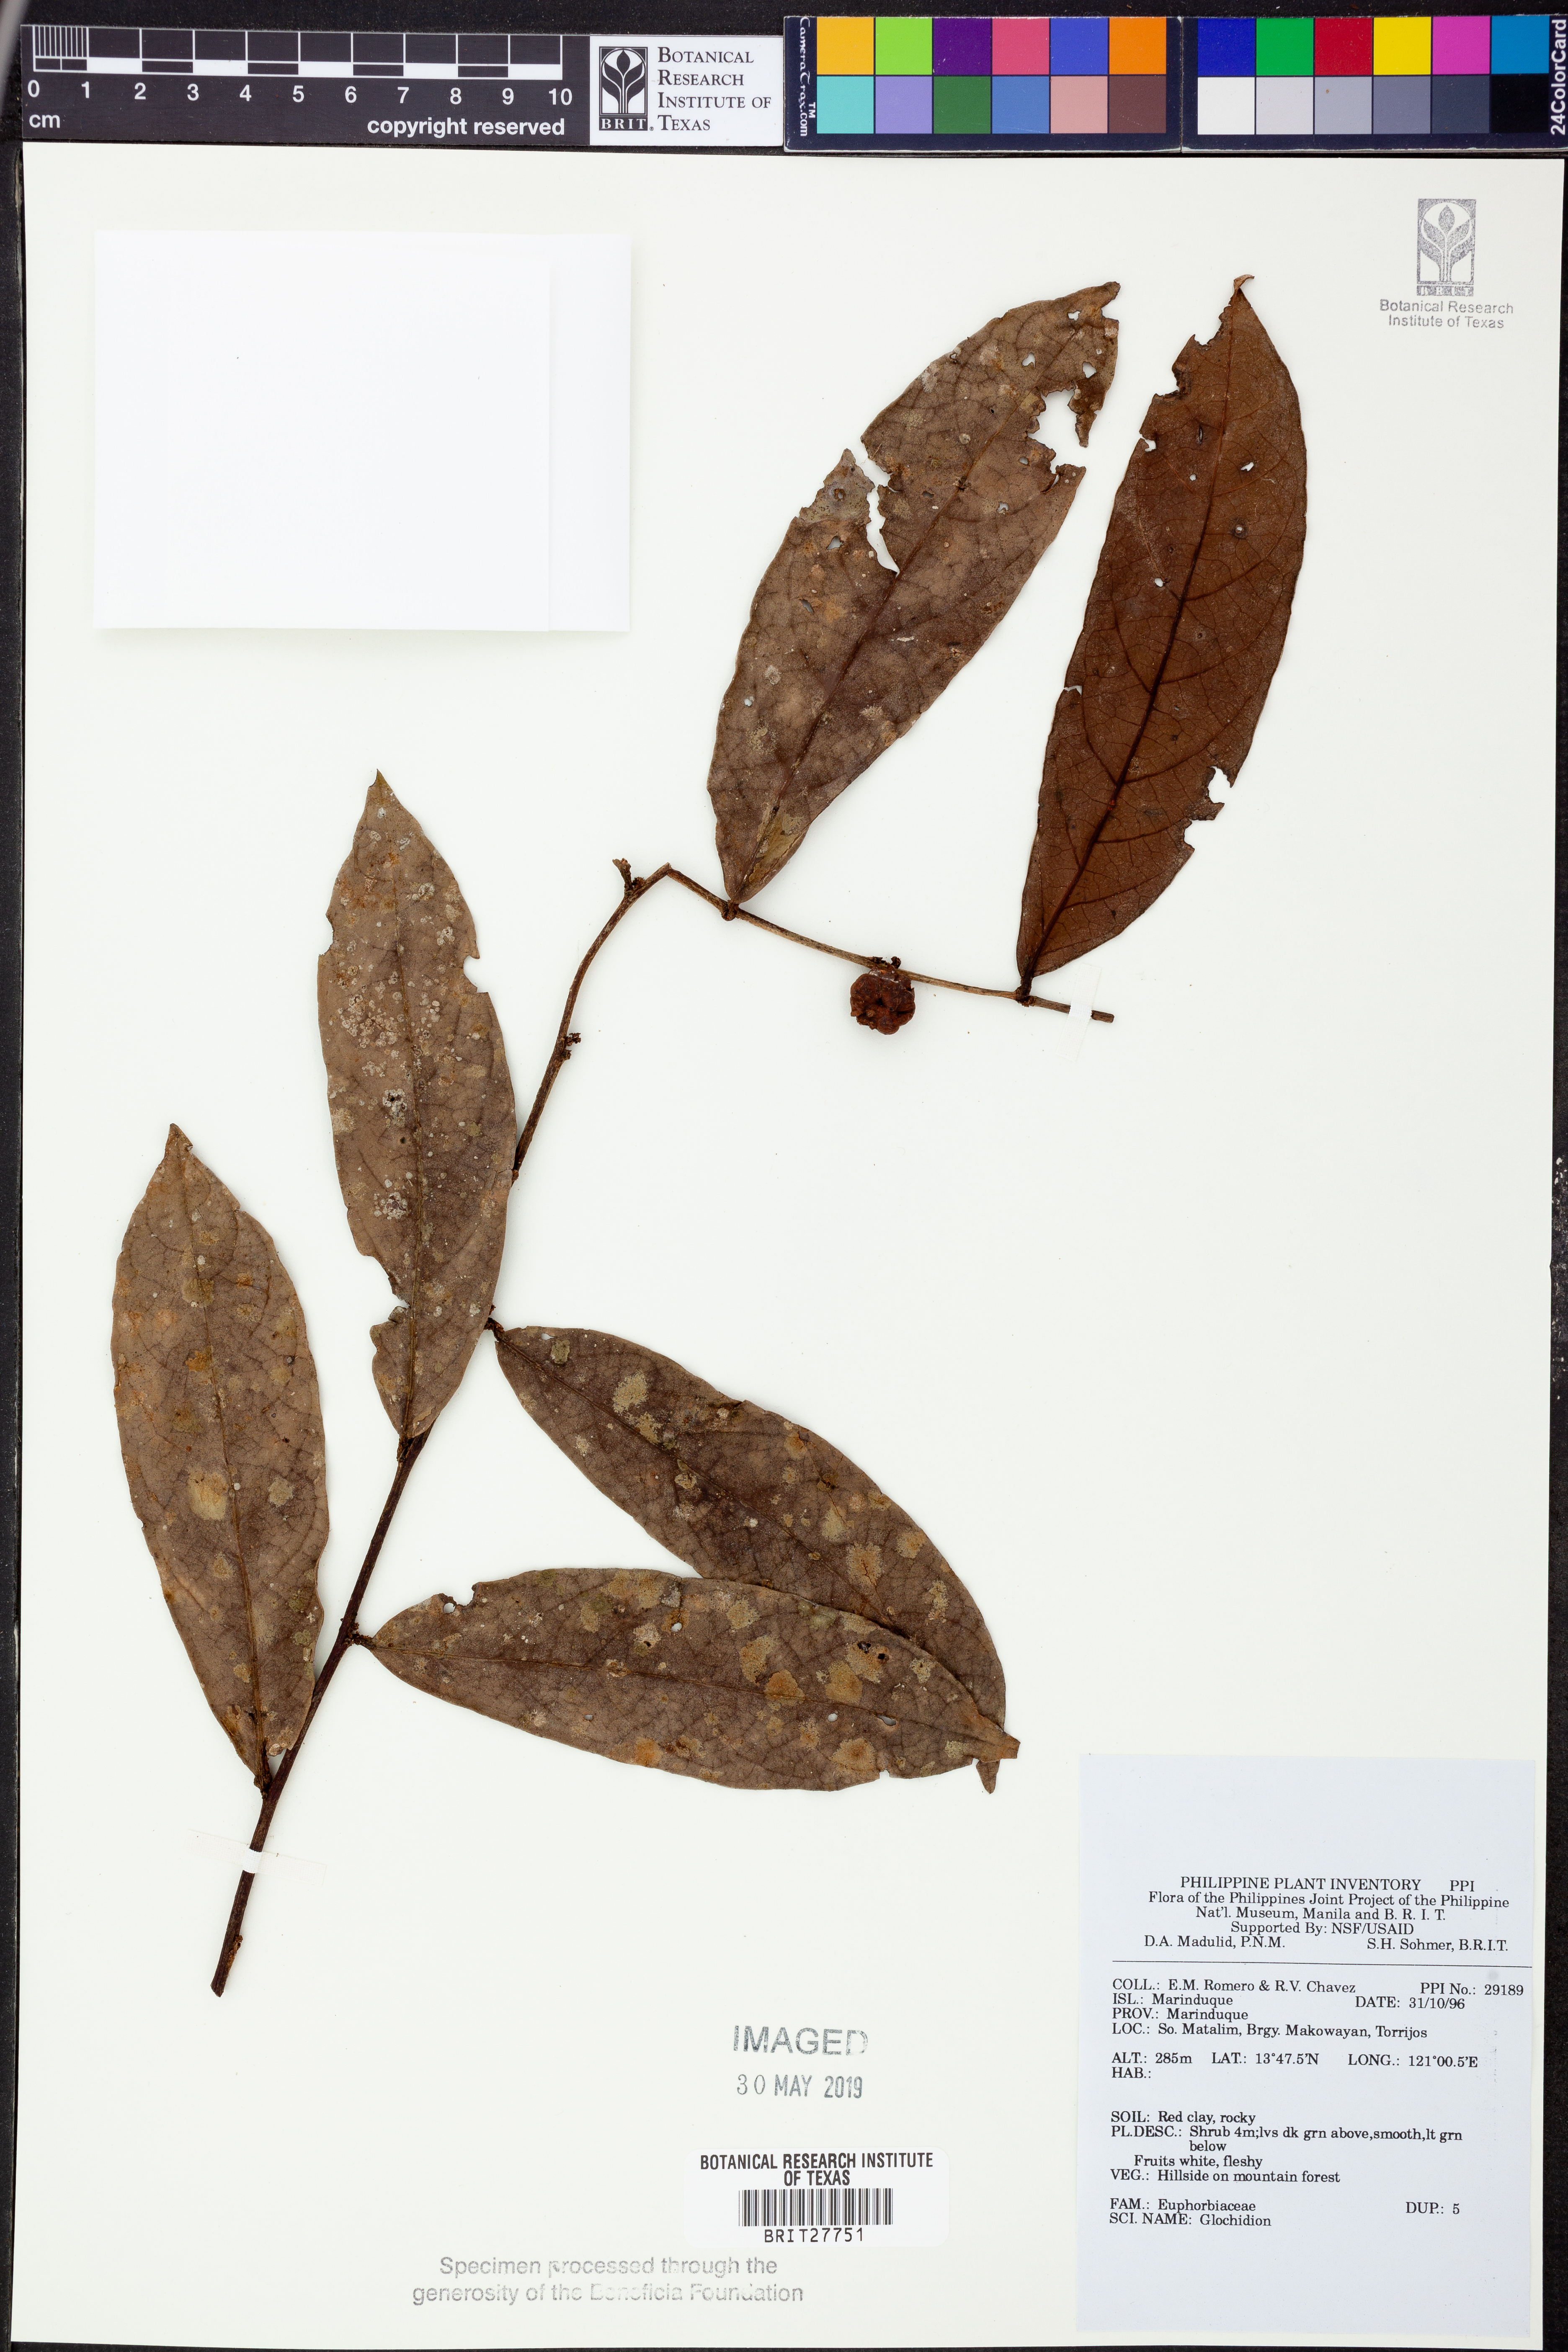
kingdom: Plantae
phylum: Tracheophyta
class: Magnoliopsida
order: Malpighiales
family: Phyllanthaceae
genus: Glochidion
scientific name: Glochidion
